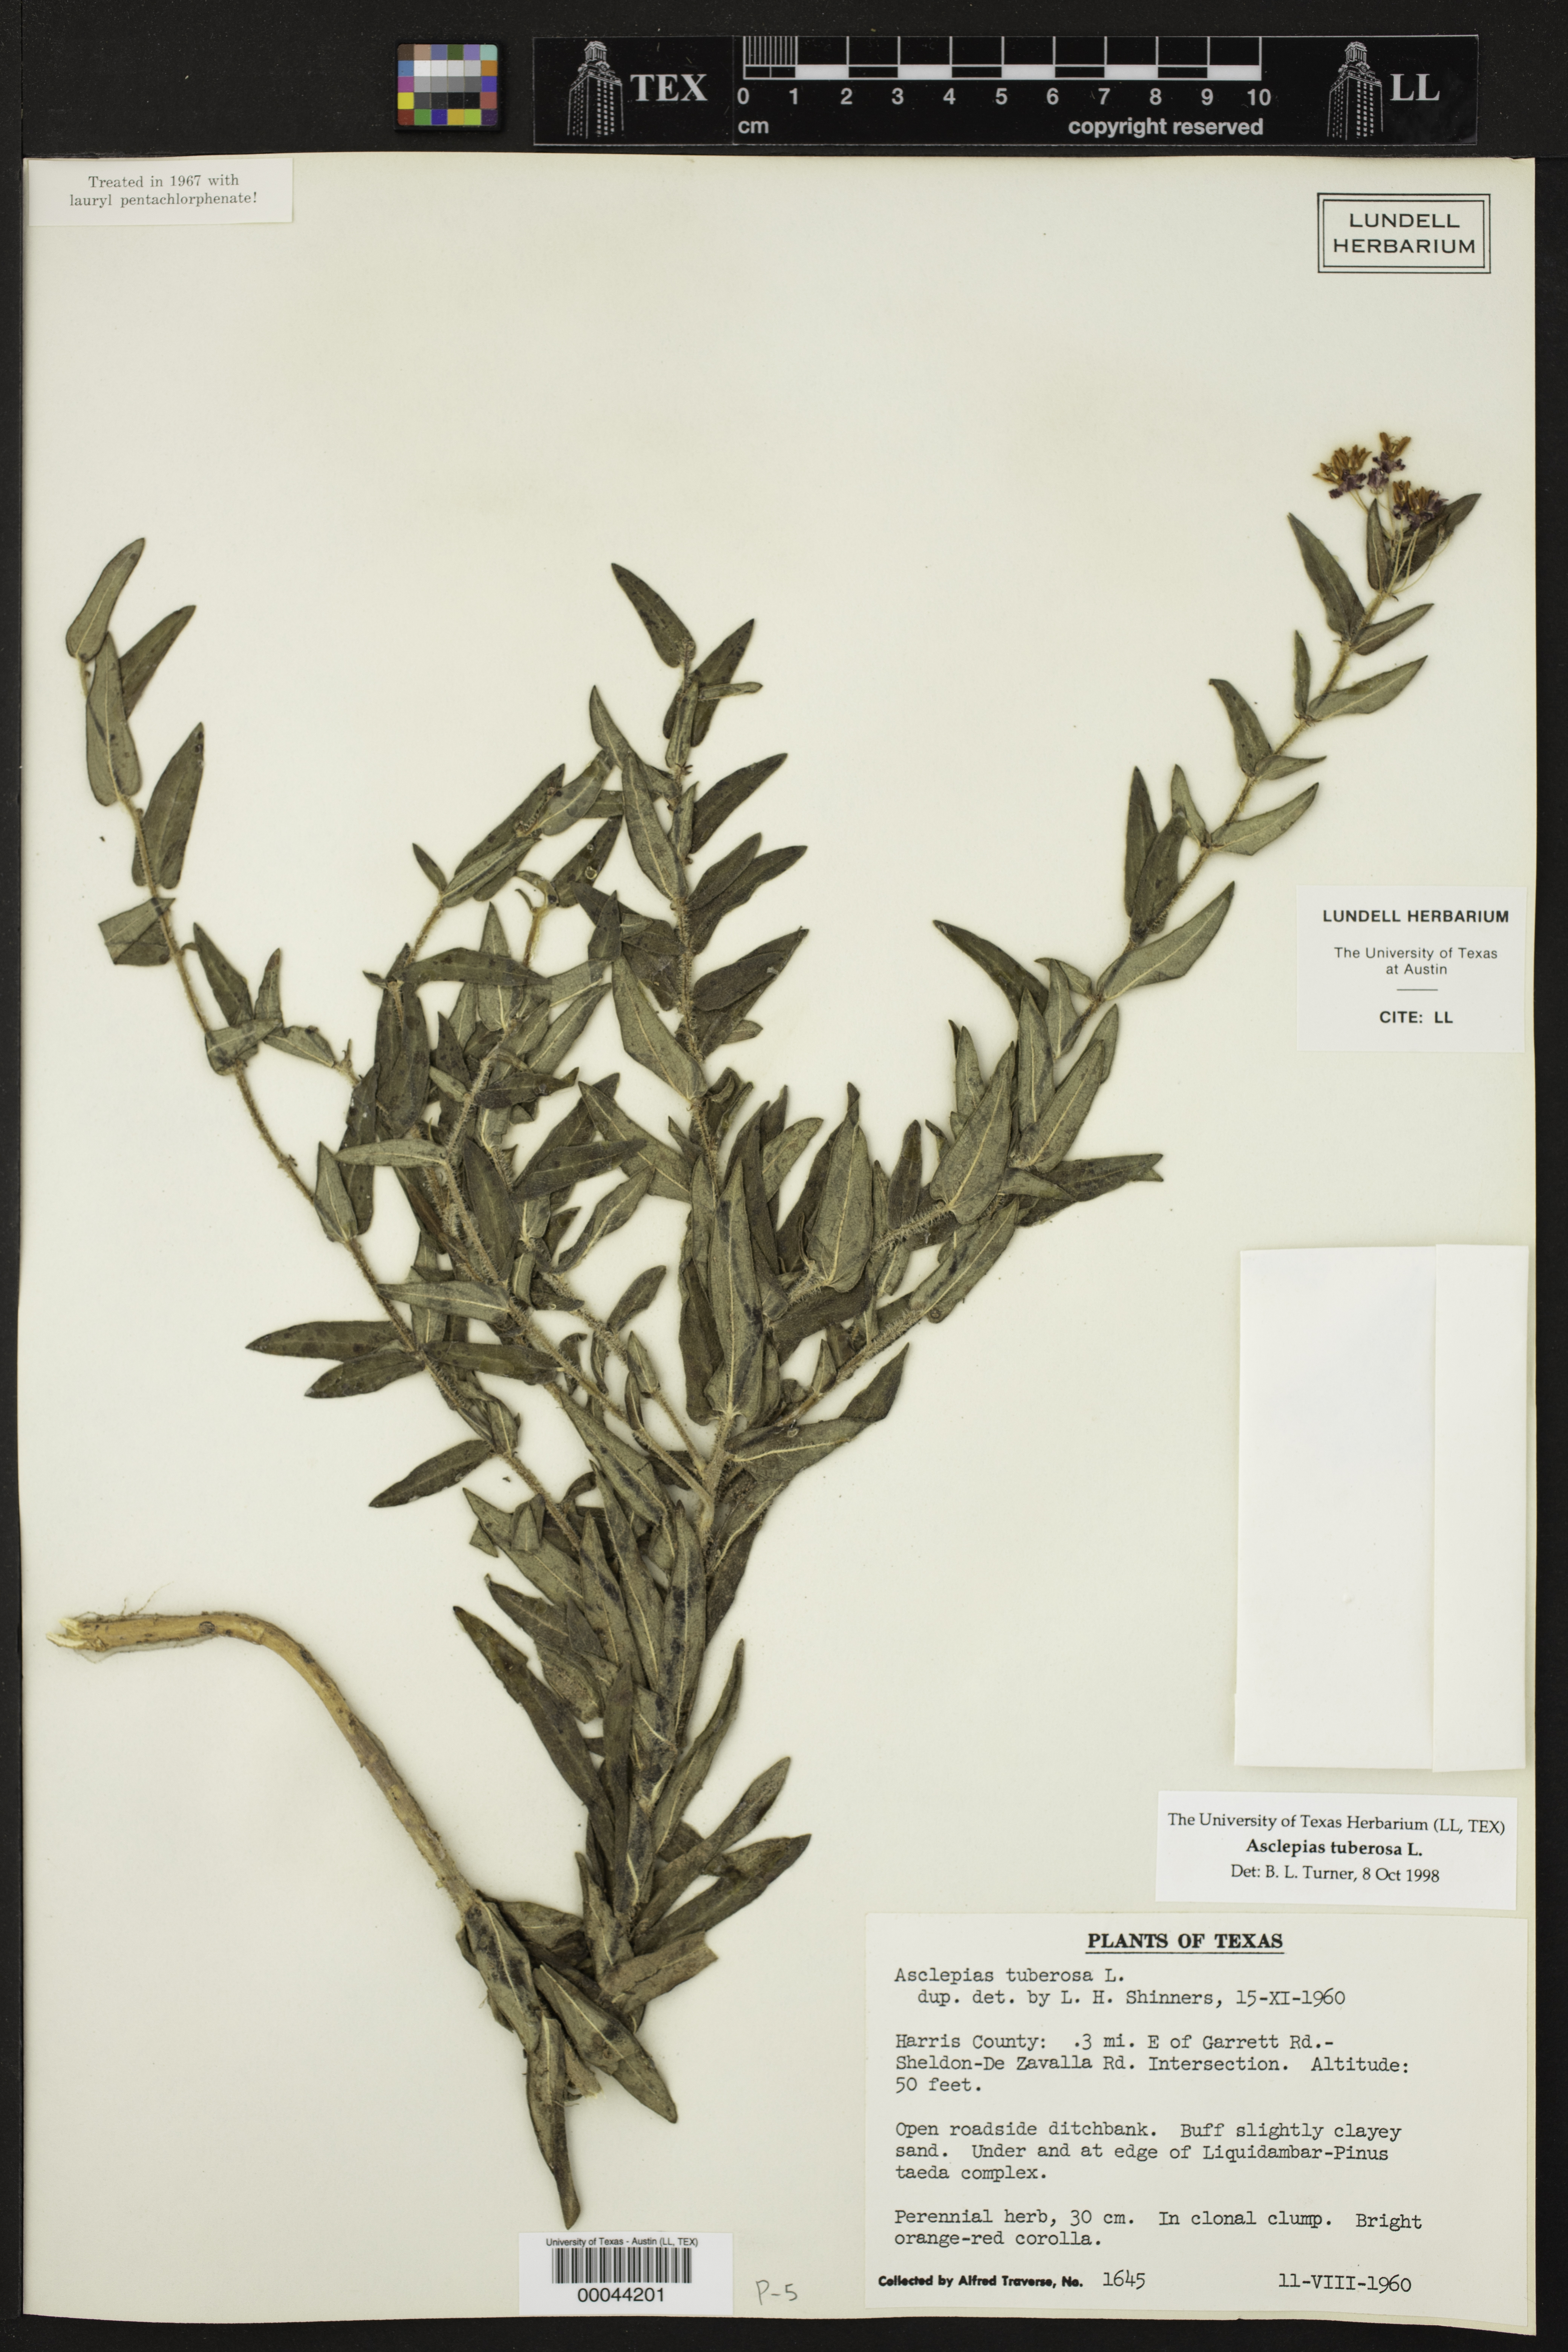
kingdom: Plantae
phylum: Tracheophyta
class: Magnoliopsida
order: Gentianales
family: Apocynaceae
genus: Asclepias
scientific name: Asclepias tuberosa
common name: Butterfly milkweed
